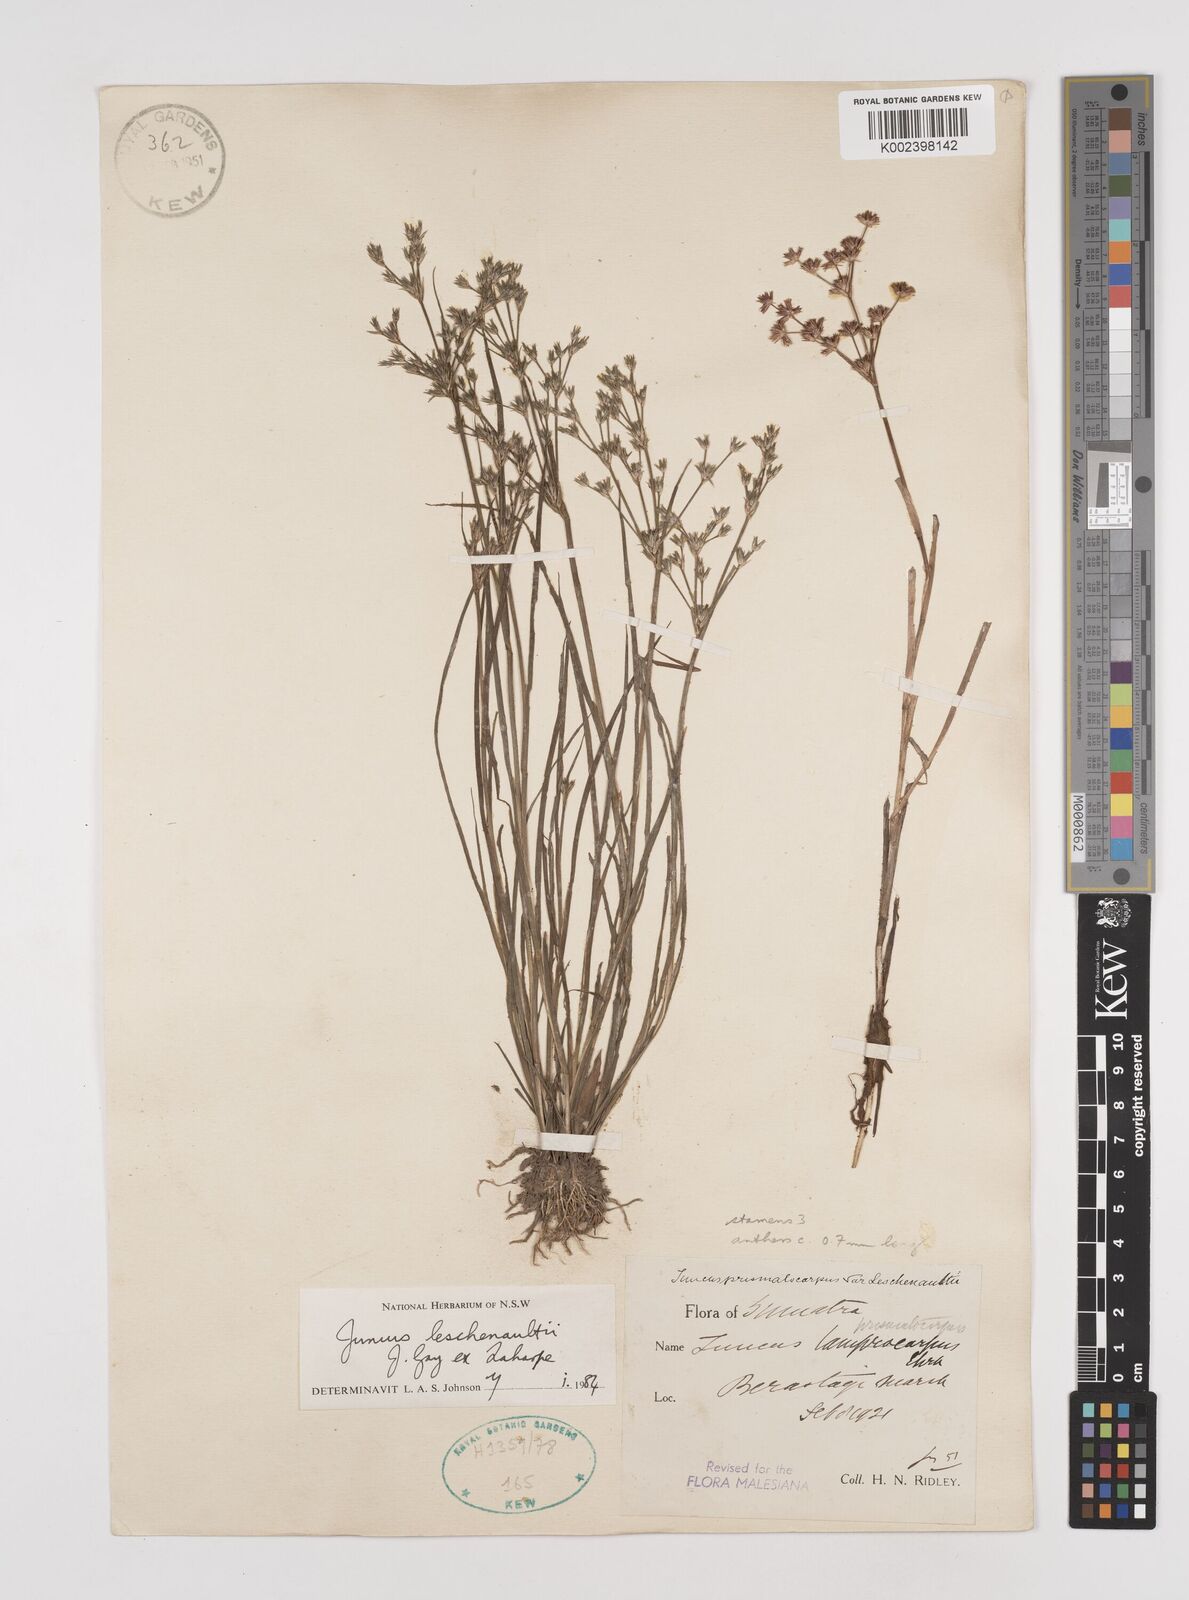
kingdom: Plantae
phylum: Tracheophyta
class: Liliopsida
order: Poales
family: Juncaceae
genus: Juncus
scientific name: Juncus prismatocarpus
